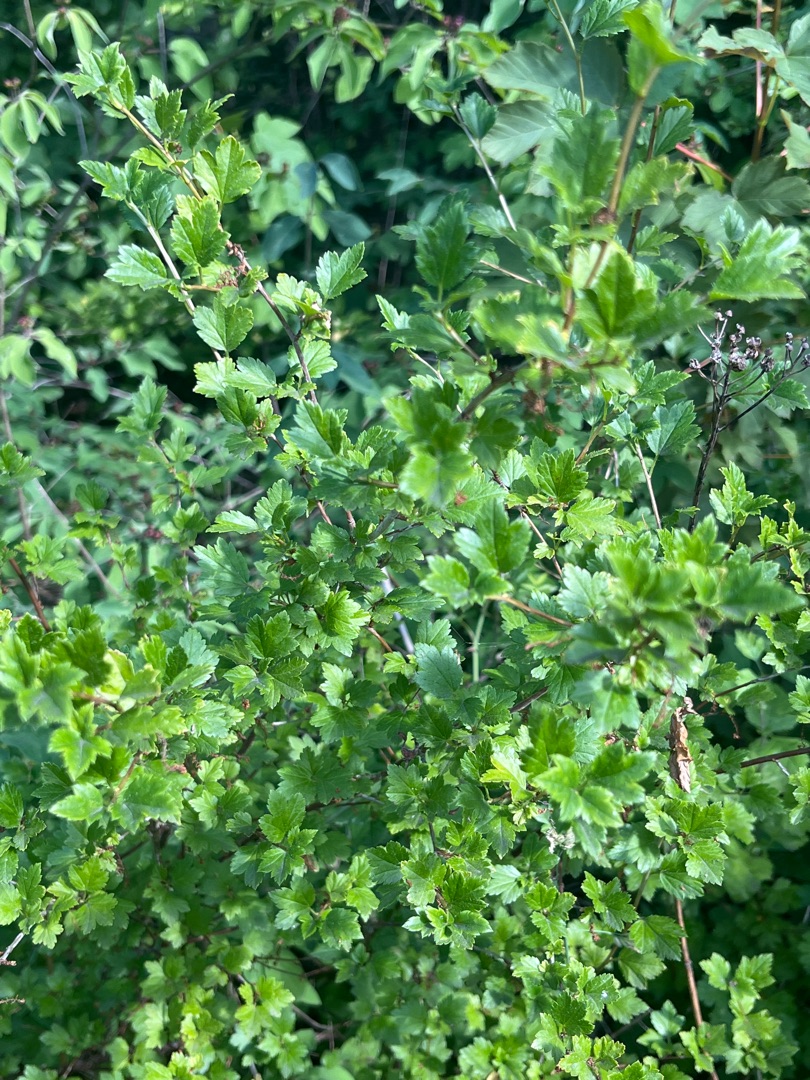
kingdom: Plantae
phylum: Tracheophyta
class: Magnoliopsida
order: Saxifragales
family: Grossulariaceae
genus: Ribes
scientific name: Ribes alpinum
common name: Fjeld-ribs
